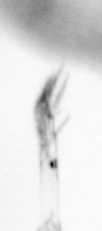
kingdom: Animalia
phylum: Arthropoda
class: Copepoda
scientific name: Copepoda
